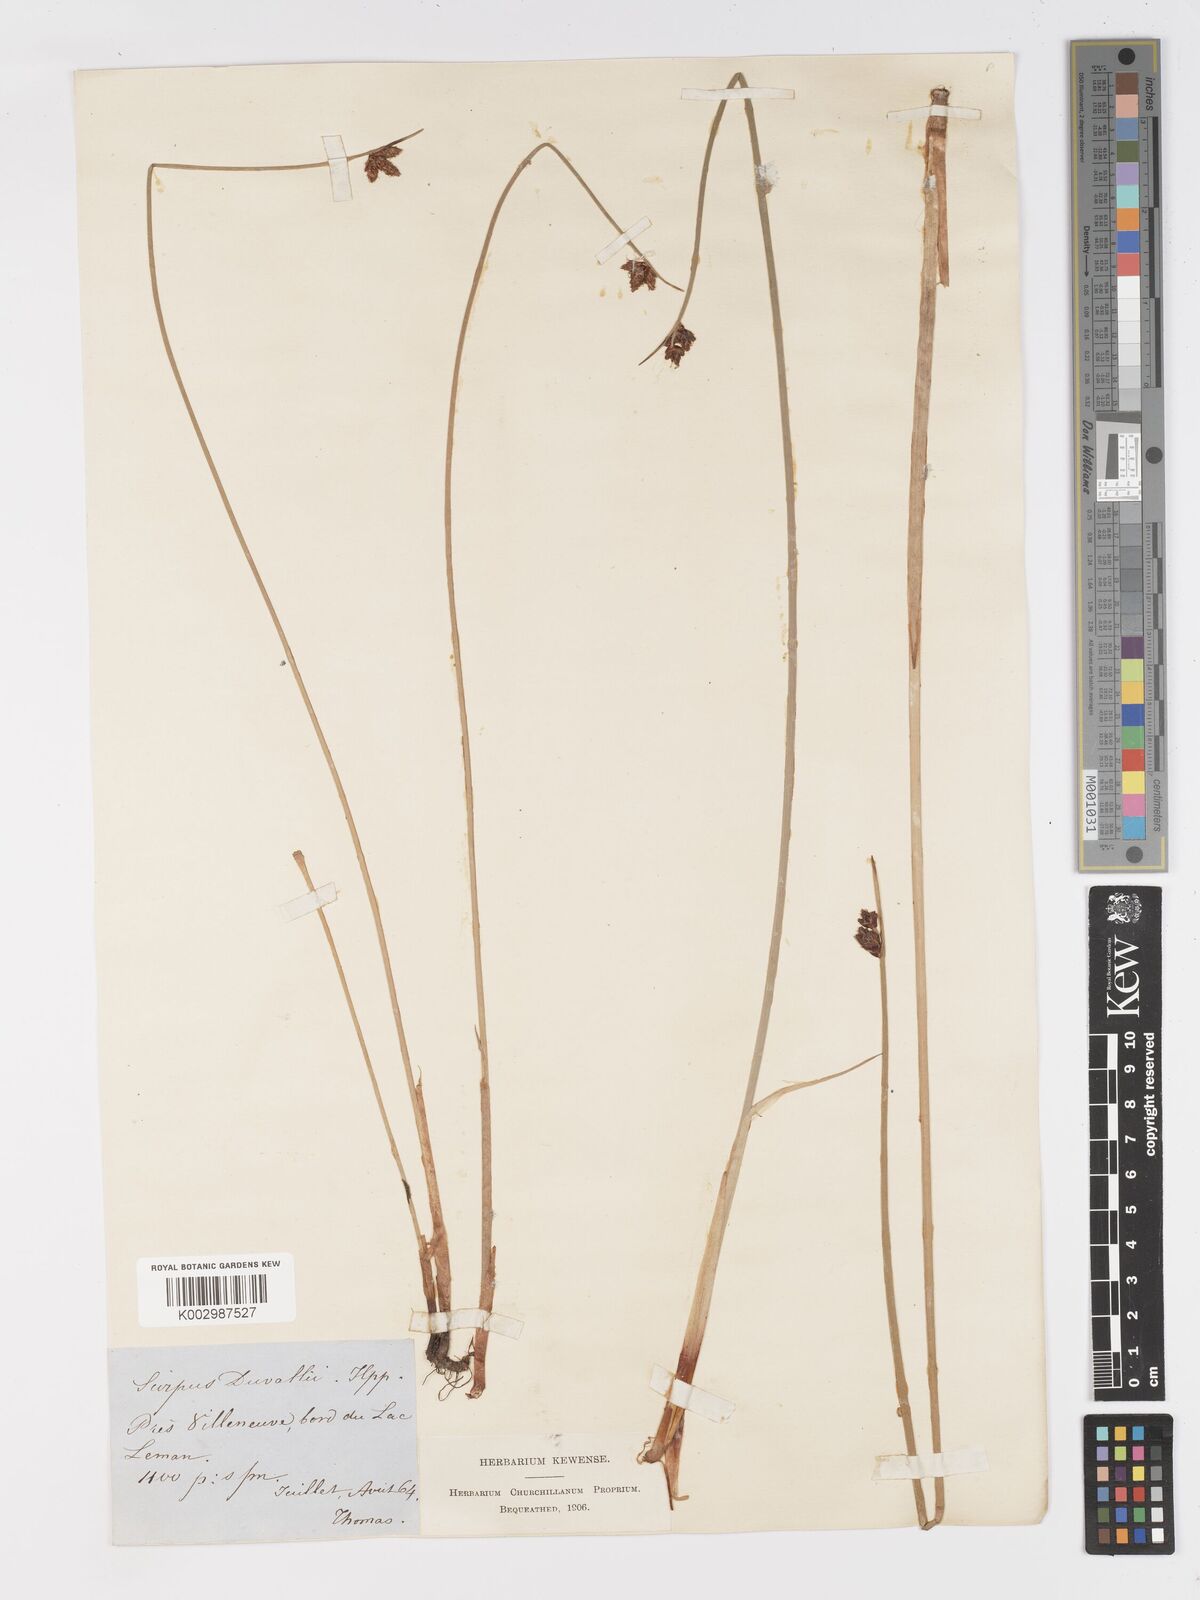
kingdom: Plantae
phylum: Tracheophyta
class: Liliopsida
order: Poales
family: Cyperaceae
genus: Schoenoplectus
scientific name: Schoenoplectus lacustris
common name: Common club-rush
